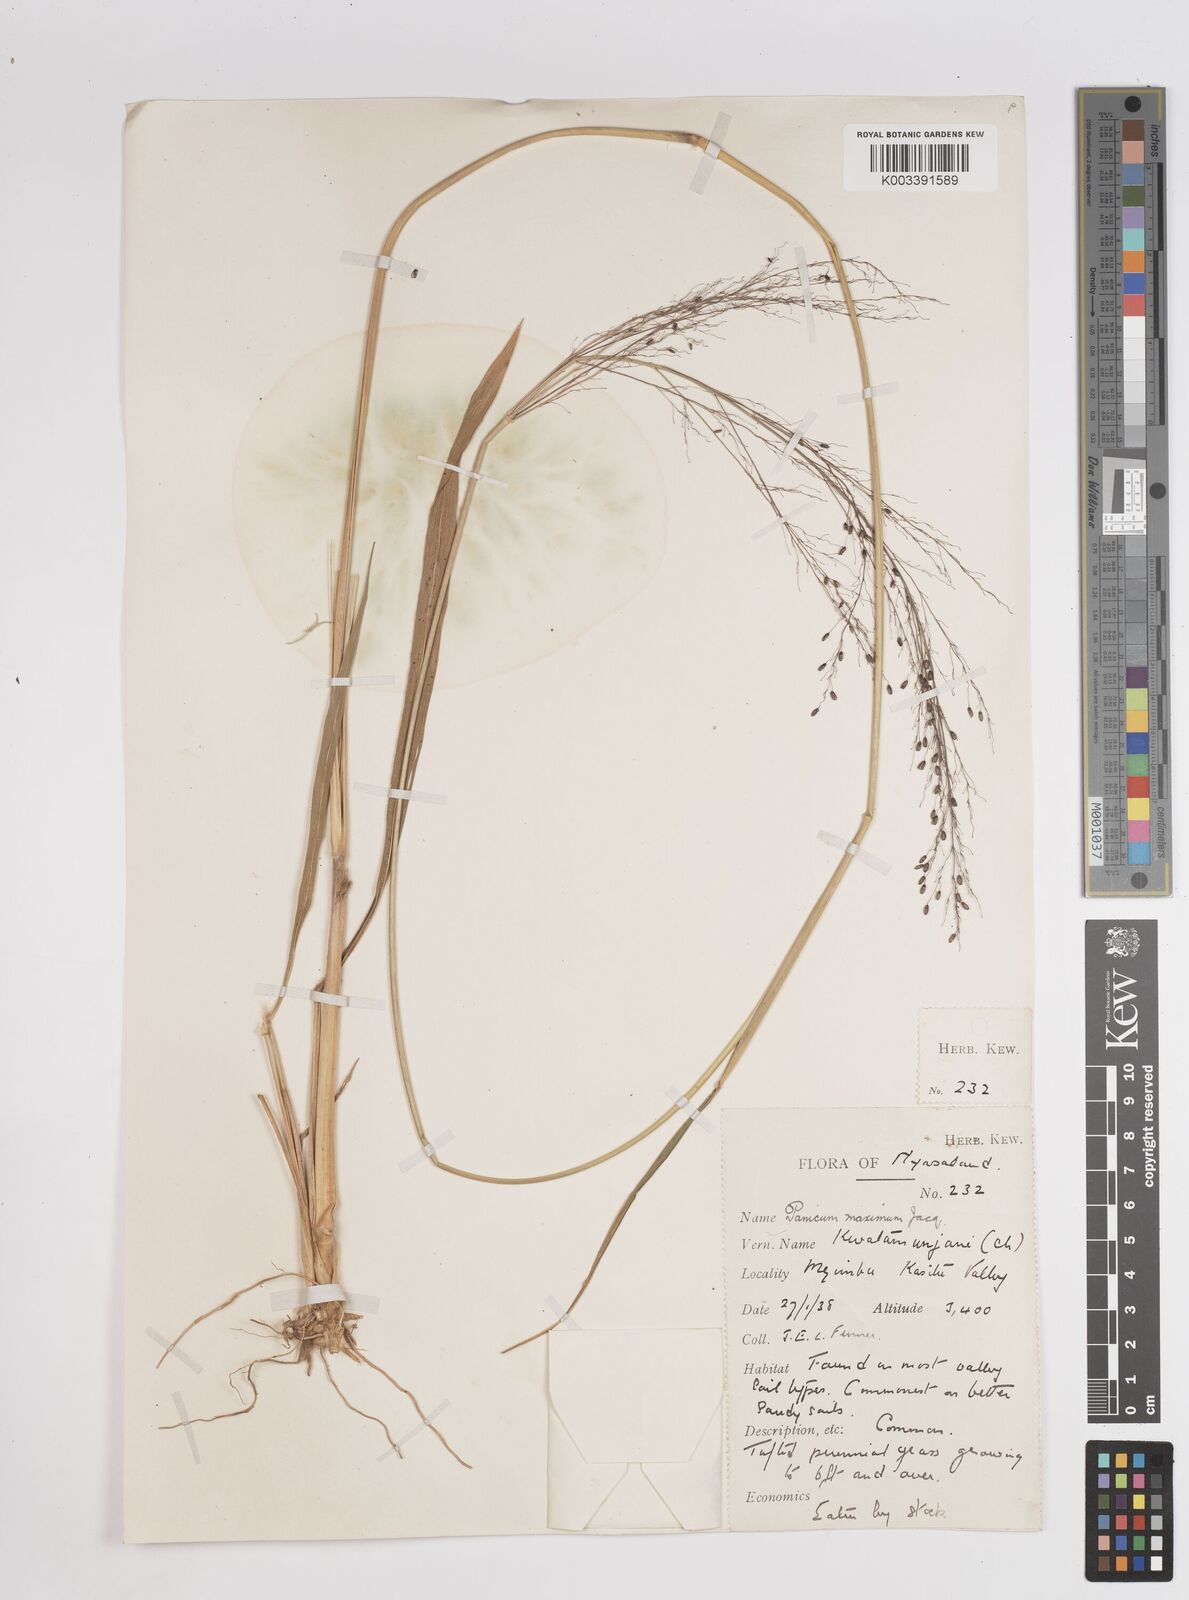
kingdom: Plantae
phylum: Tracheophyta
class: Liliopsida
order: Poales
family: Poaceae
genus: Megathyrsus
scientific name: Megathyrsus maximus
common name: Guineagrass
